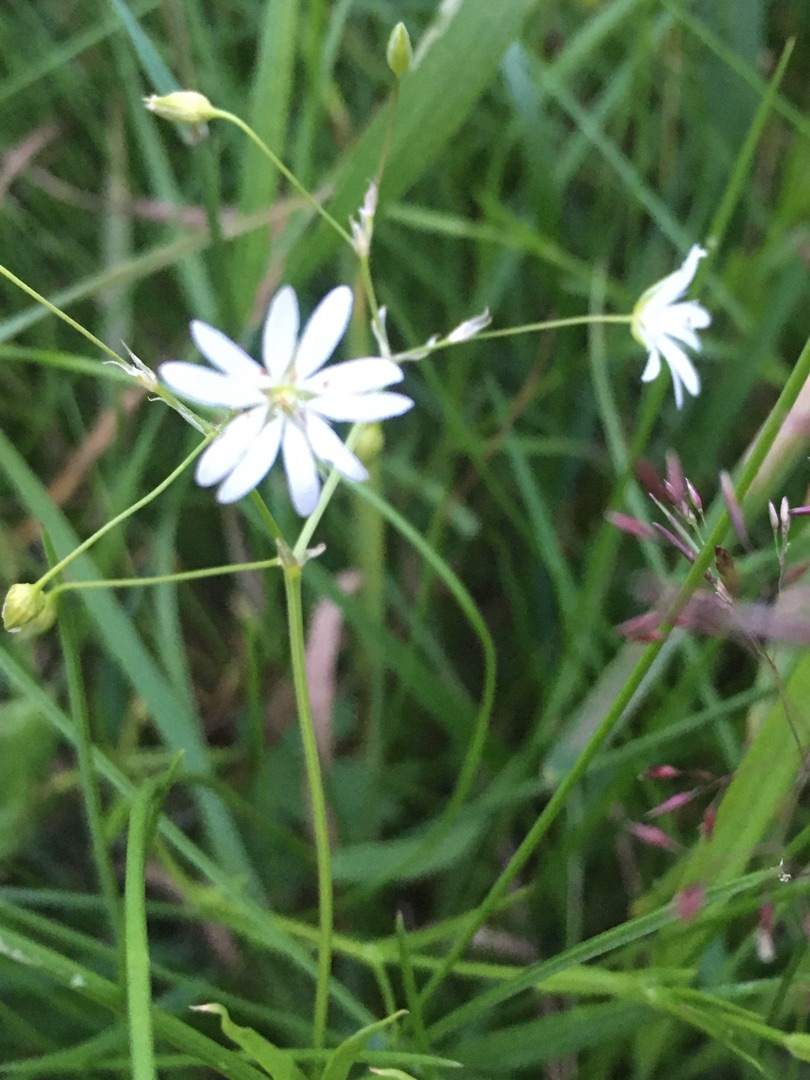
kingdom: Plantae
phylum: Tracheophyta
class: Magnoliopsida
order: Caryophyllales
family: Caryophyllaceae
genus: Stellaria
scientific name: Stellaria graminea
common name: Græsbladet fladstjerne
